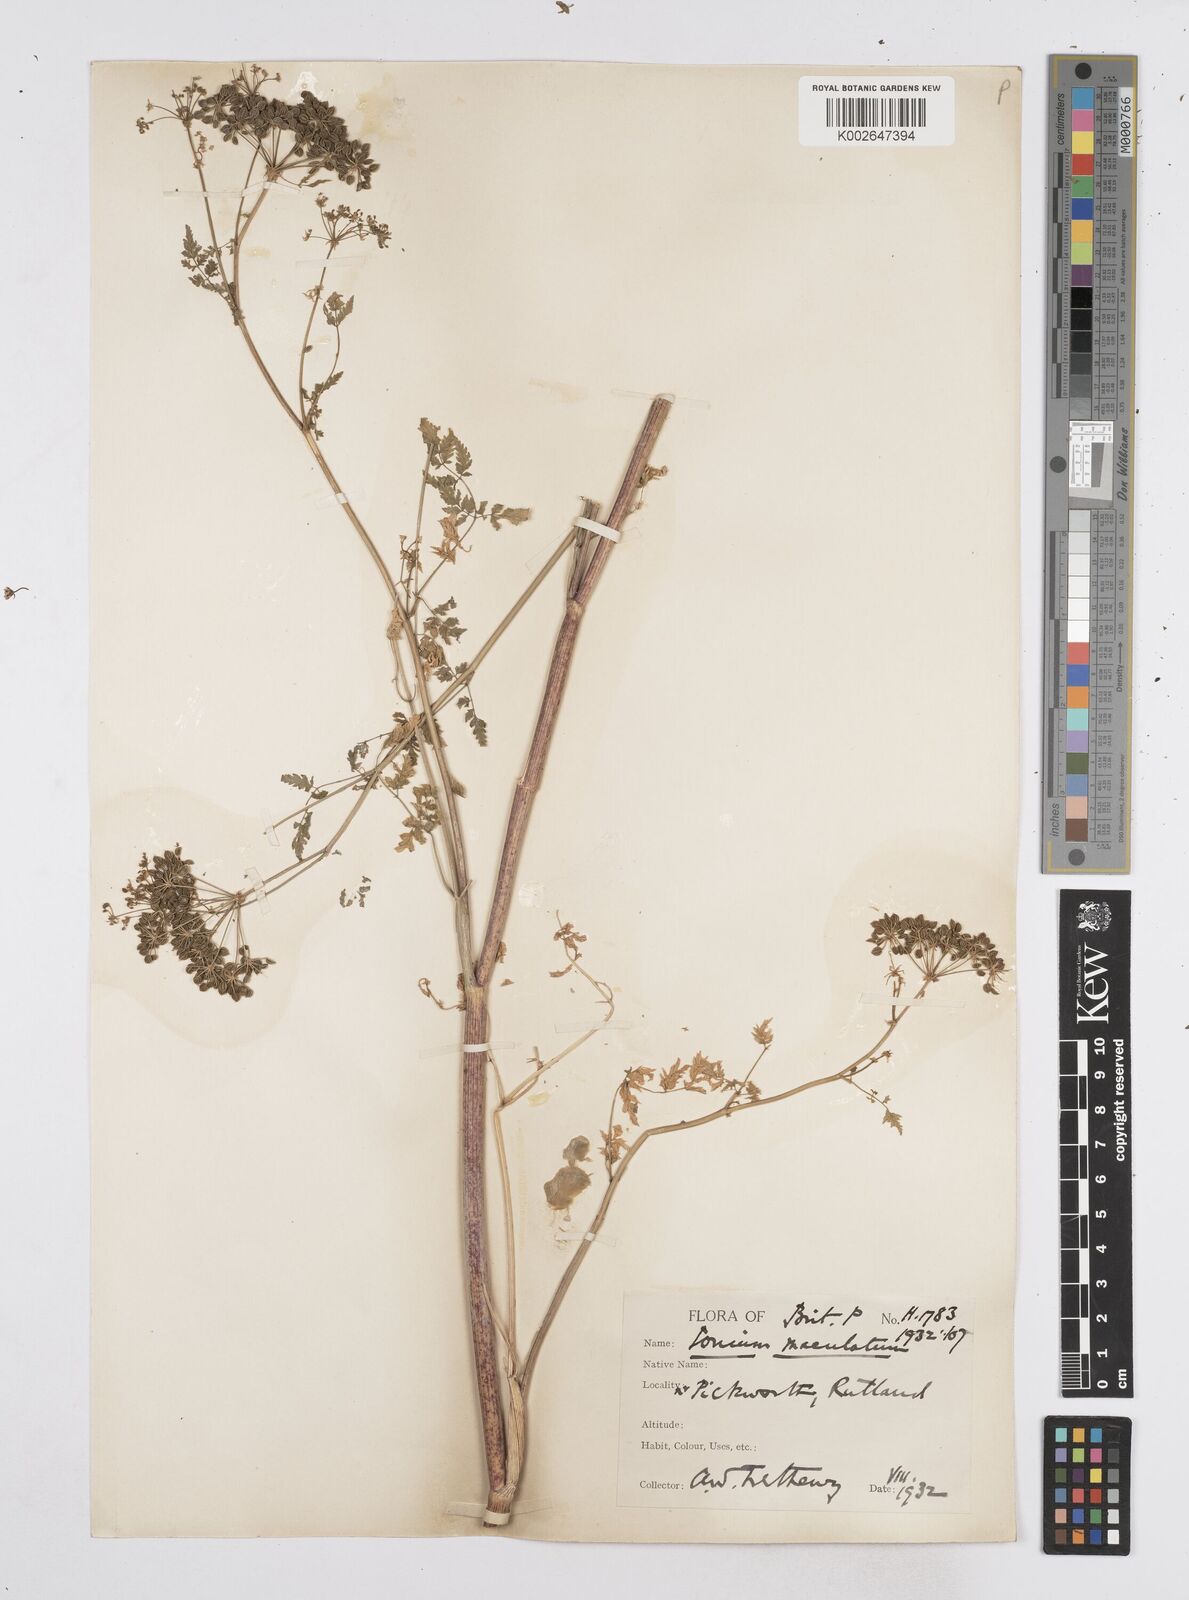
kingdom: Plantae
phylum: Tracheophyta
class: Magnoliopsida
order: Apiales
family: Apiaceae
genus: Conium
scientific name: Conium maculatum
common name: Hemlock
